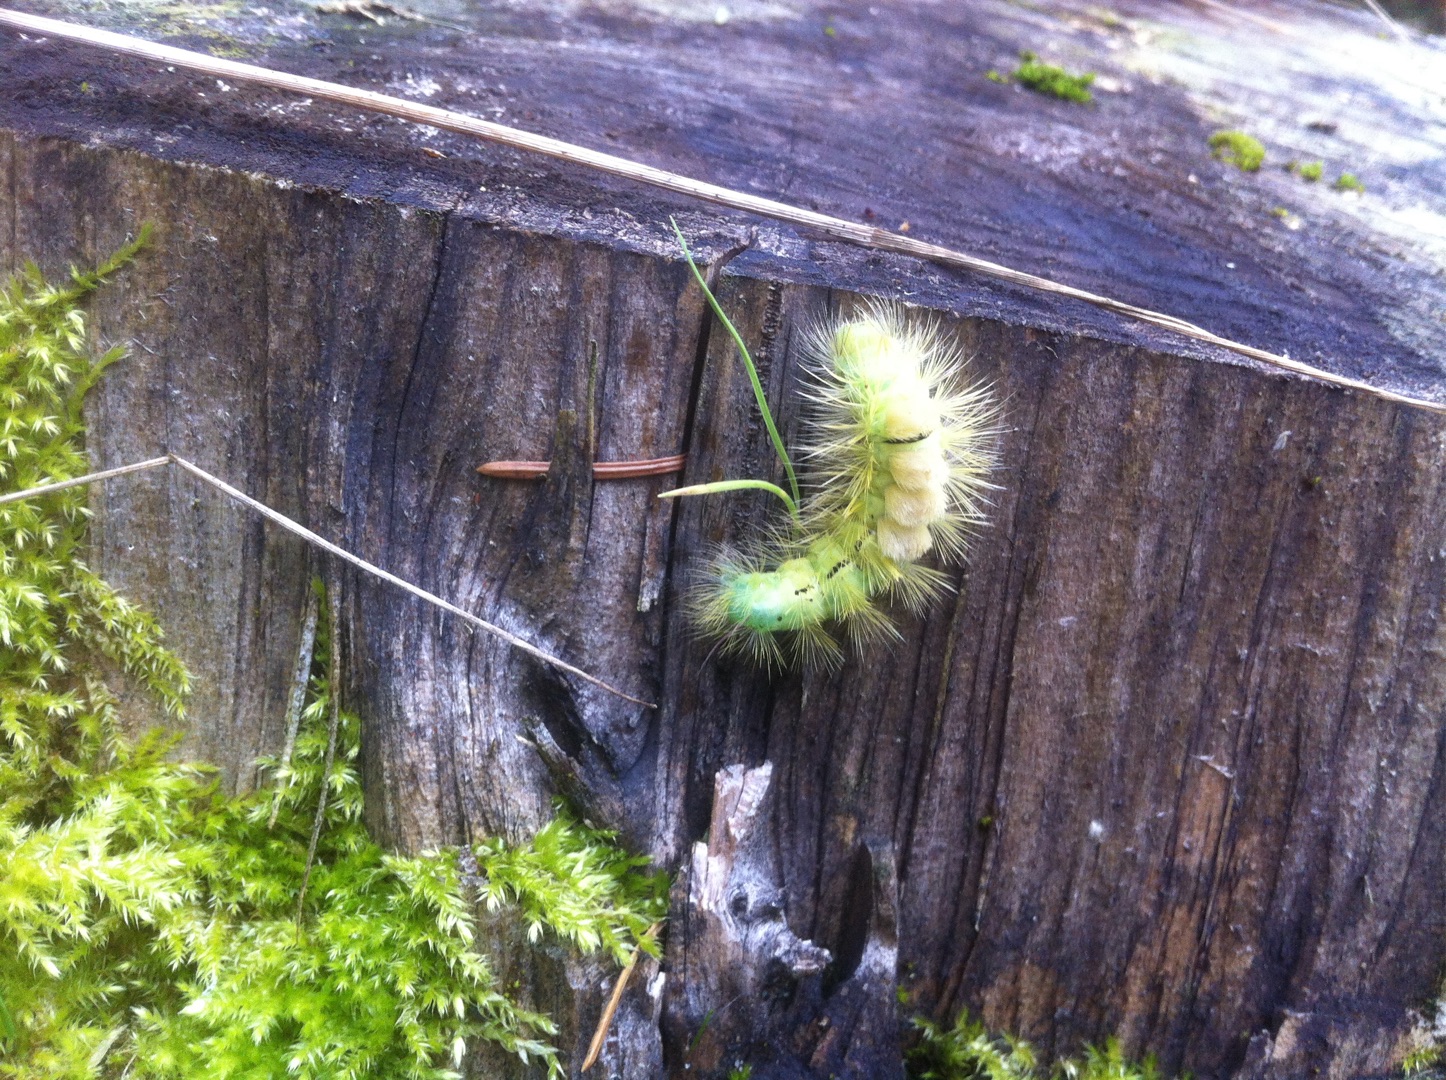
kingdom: Animalia
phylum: Arthropoda
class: Insecta
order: Lepidoptera
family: Erebidae
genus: Calliteara
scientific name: Calliteara pudibunda
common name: Bøgenonne
